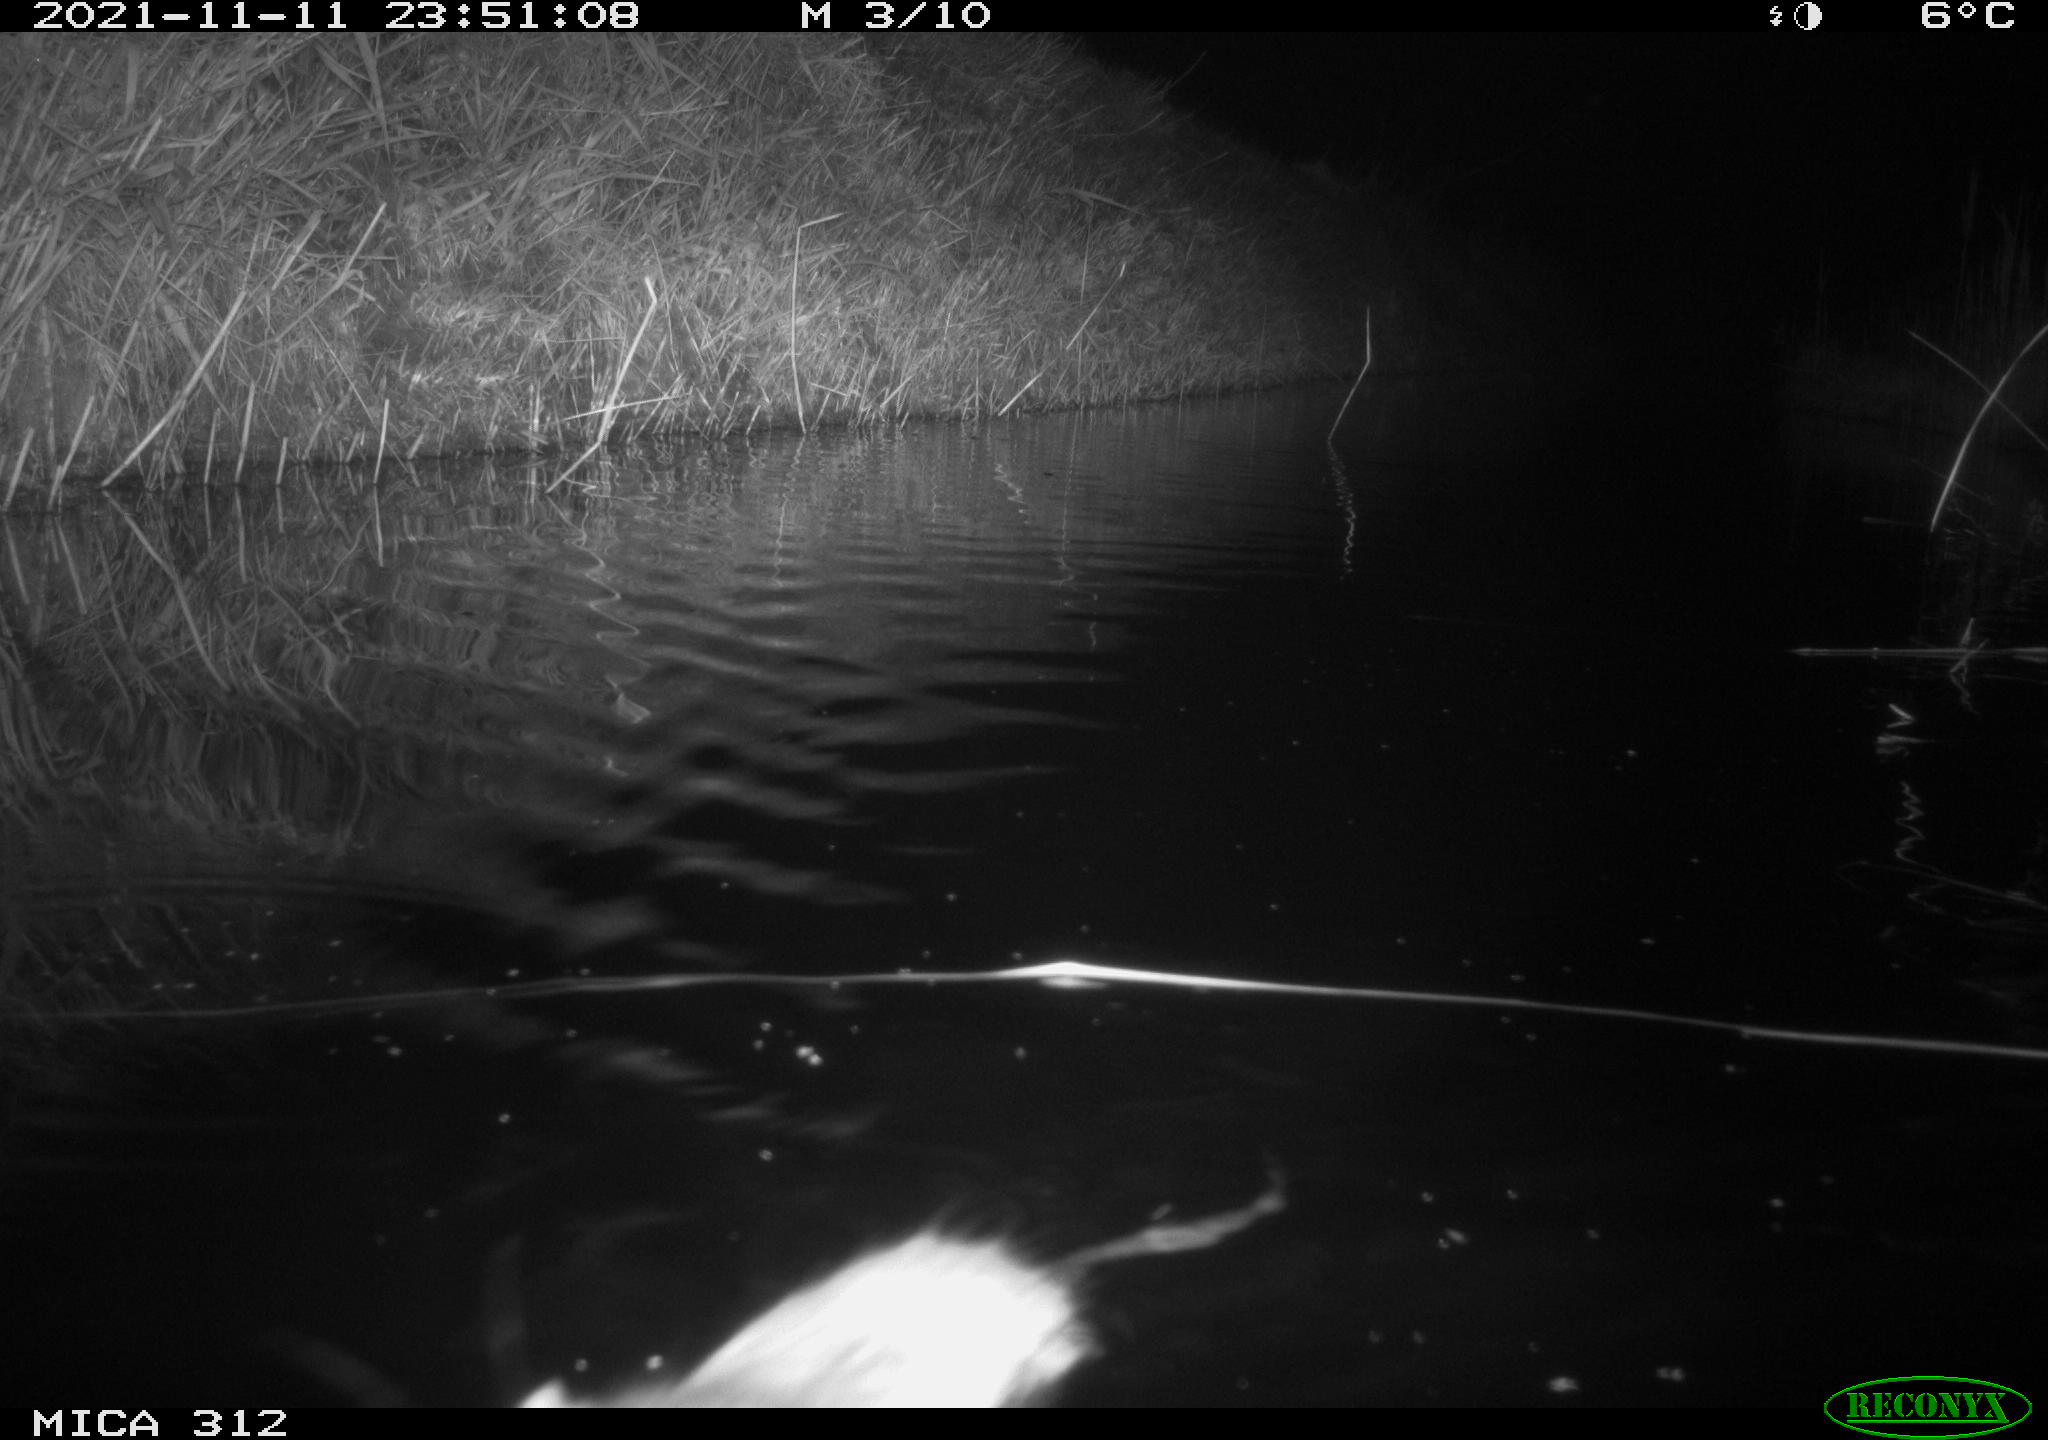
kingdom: Animalia
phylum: Chordata
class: Mammalia
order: Rodentia
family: Muridae
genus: Rattus
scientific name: Rattus norvegicus
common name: Brown rat
